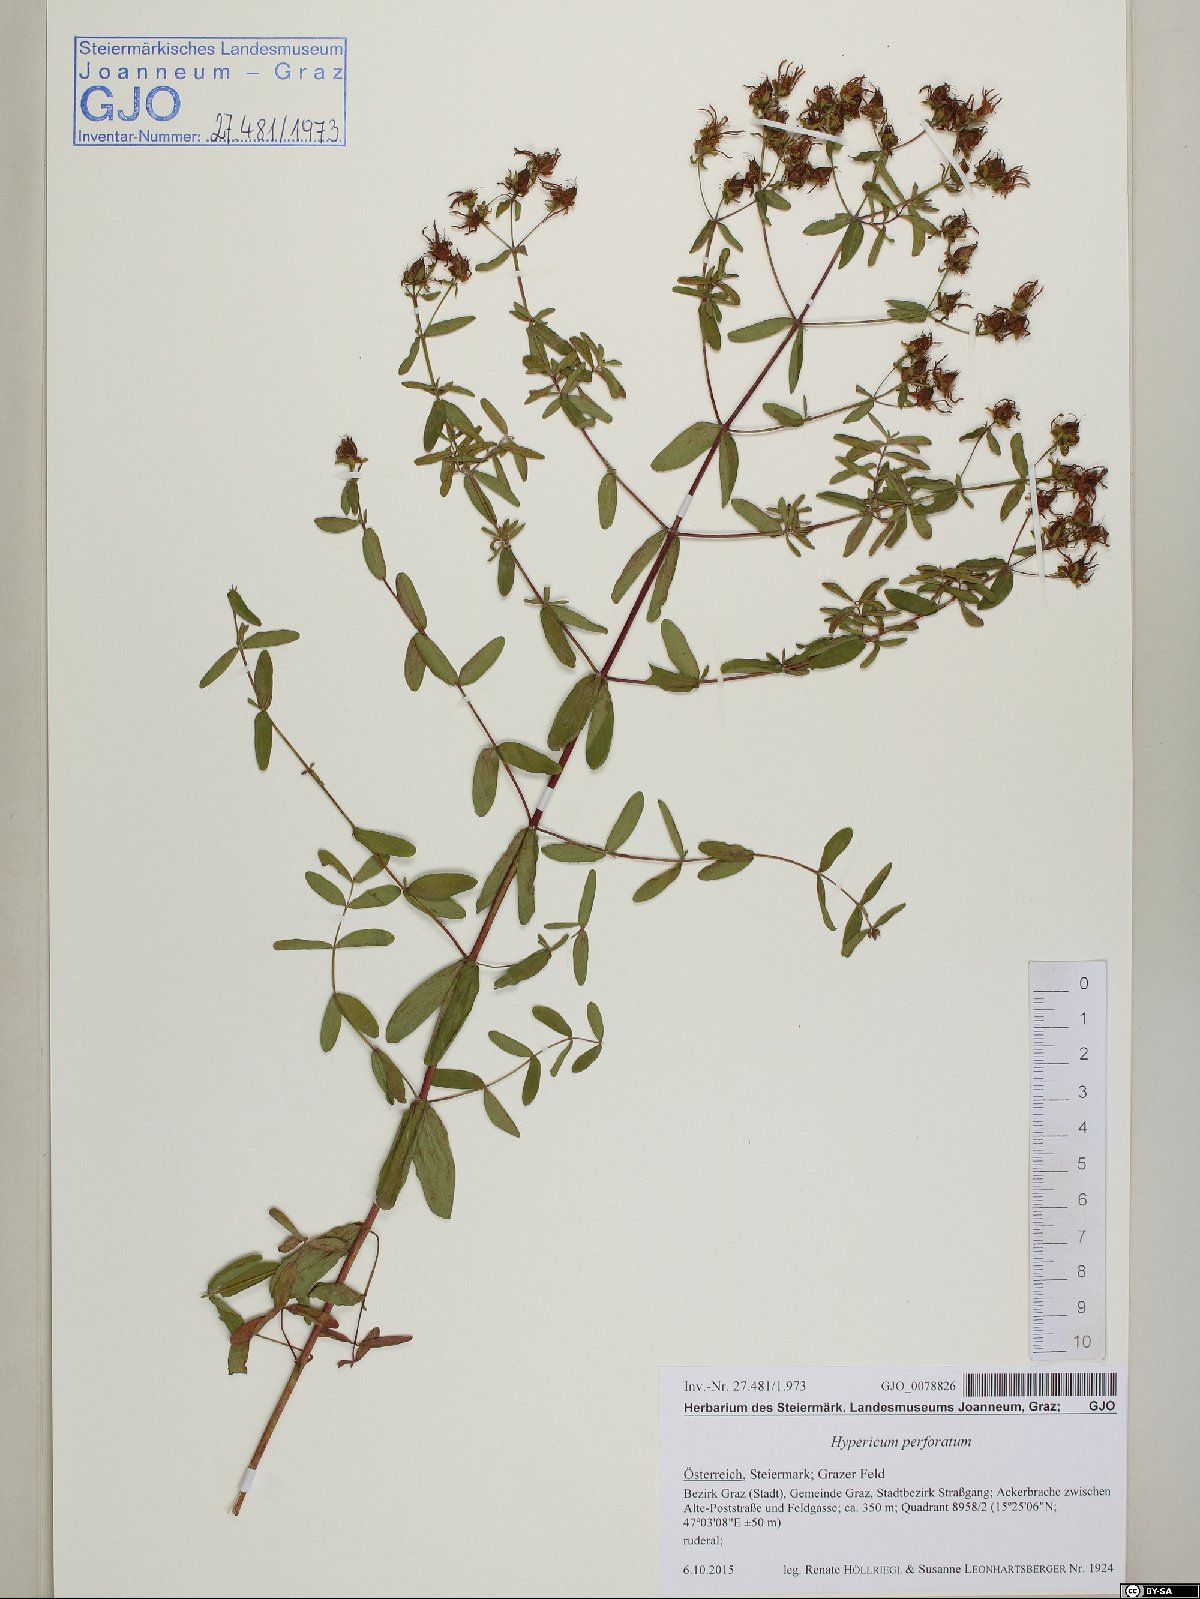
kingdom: Plantae
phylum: Tracheophyta
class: Magnoliopsida
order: Malpighiales
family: Hypericaceae
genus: Hypericum
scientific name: Hypericum perforatum
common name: Common st. johnswort
